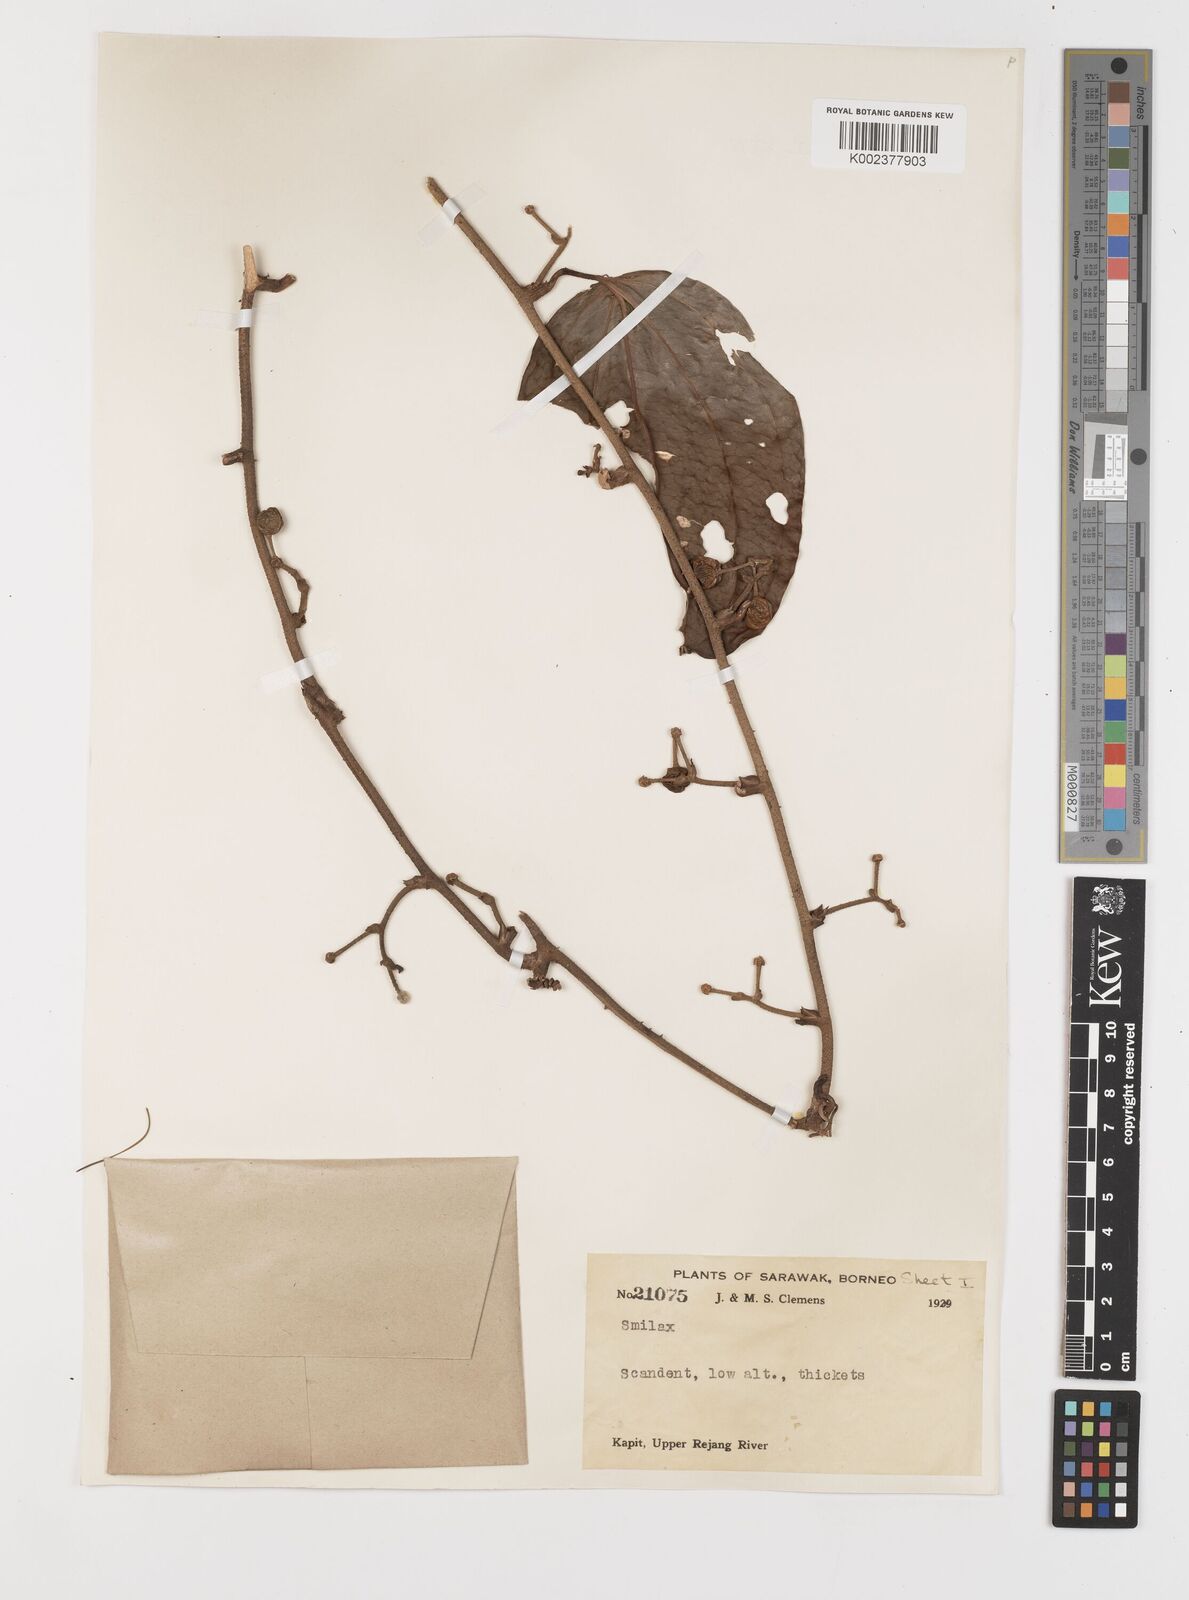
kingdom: Plantae
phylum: Tracheophyta
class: Liliopsida
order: Liliales
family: Smilacaceae
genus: Smilax
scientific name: Smilax
